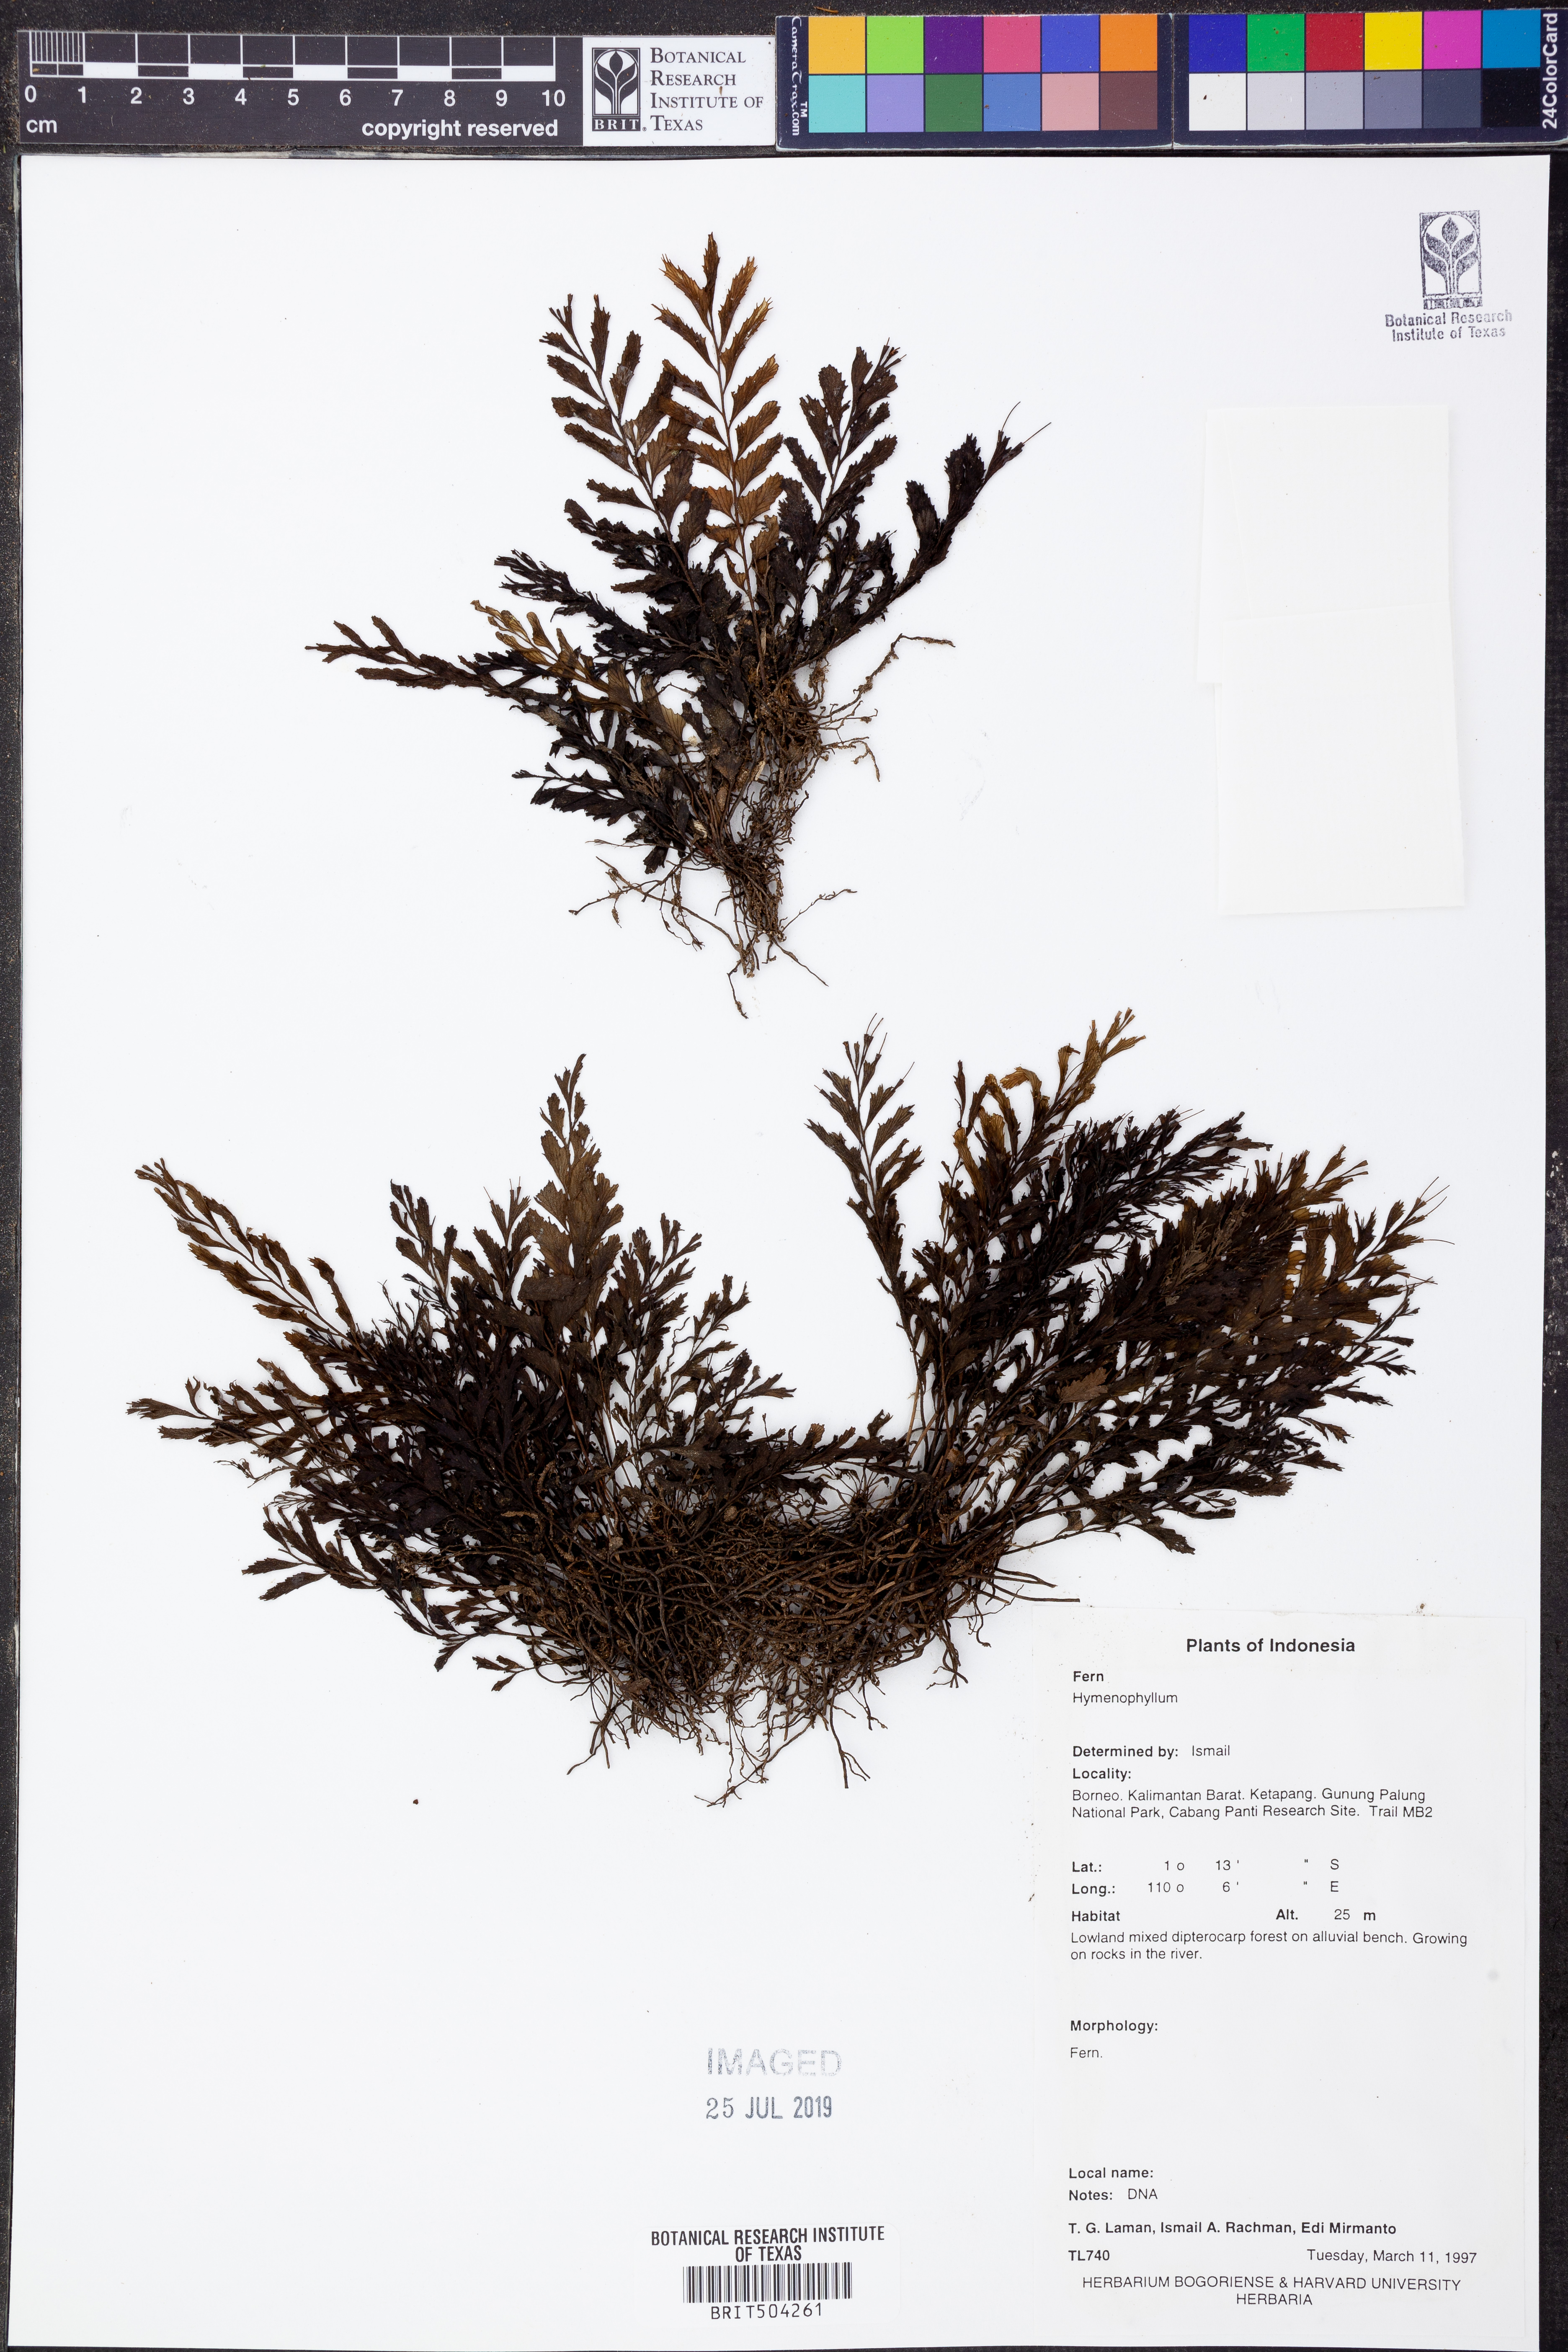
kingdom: Plantae
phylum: Tracheophyta
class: Polypodiopsida
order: Hymenophyllales
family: Hymenophyllaceae
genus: Hymenophyllum
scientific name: Hymenophyllum
